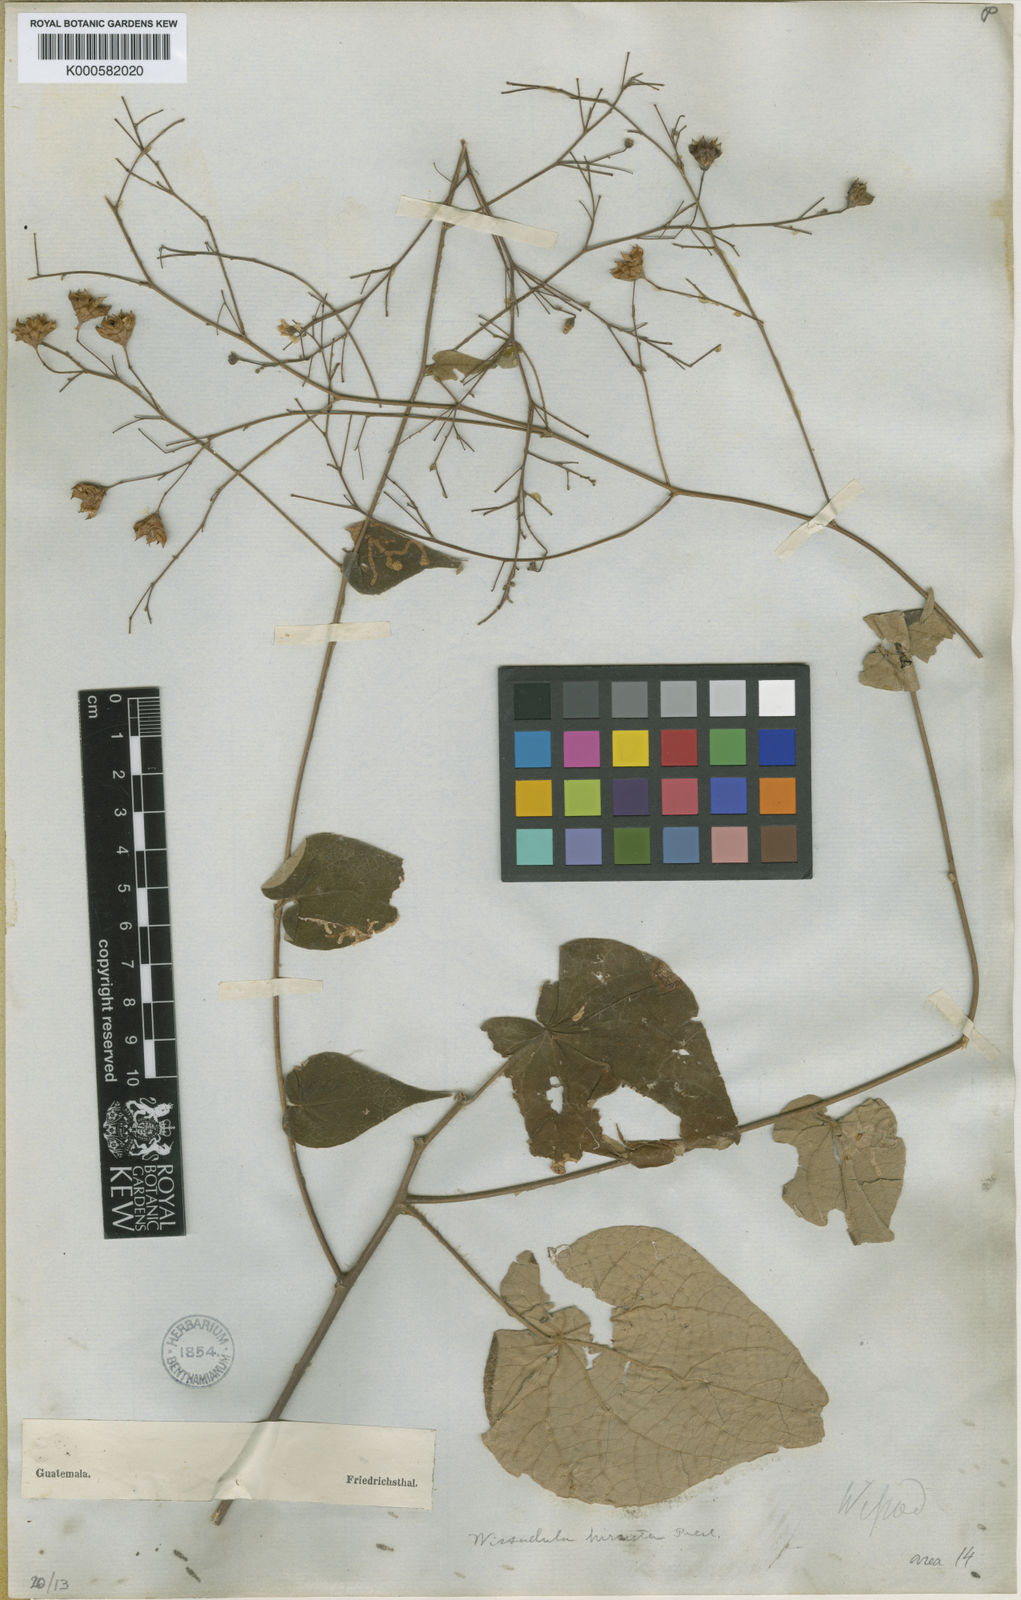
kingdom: Plantae
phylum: Tracheophyta
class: Magnoliopsida
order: Malvales
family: Malvaceae
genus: Wissadula
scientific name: Wissadula amplissima
